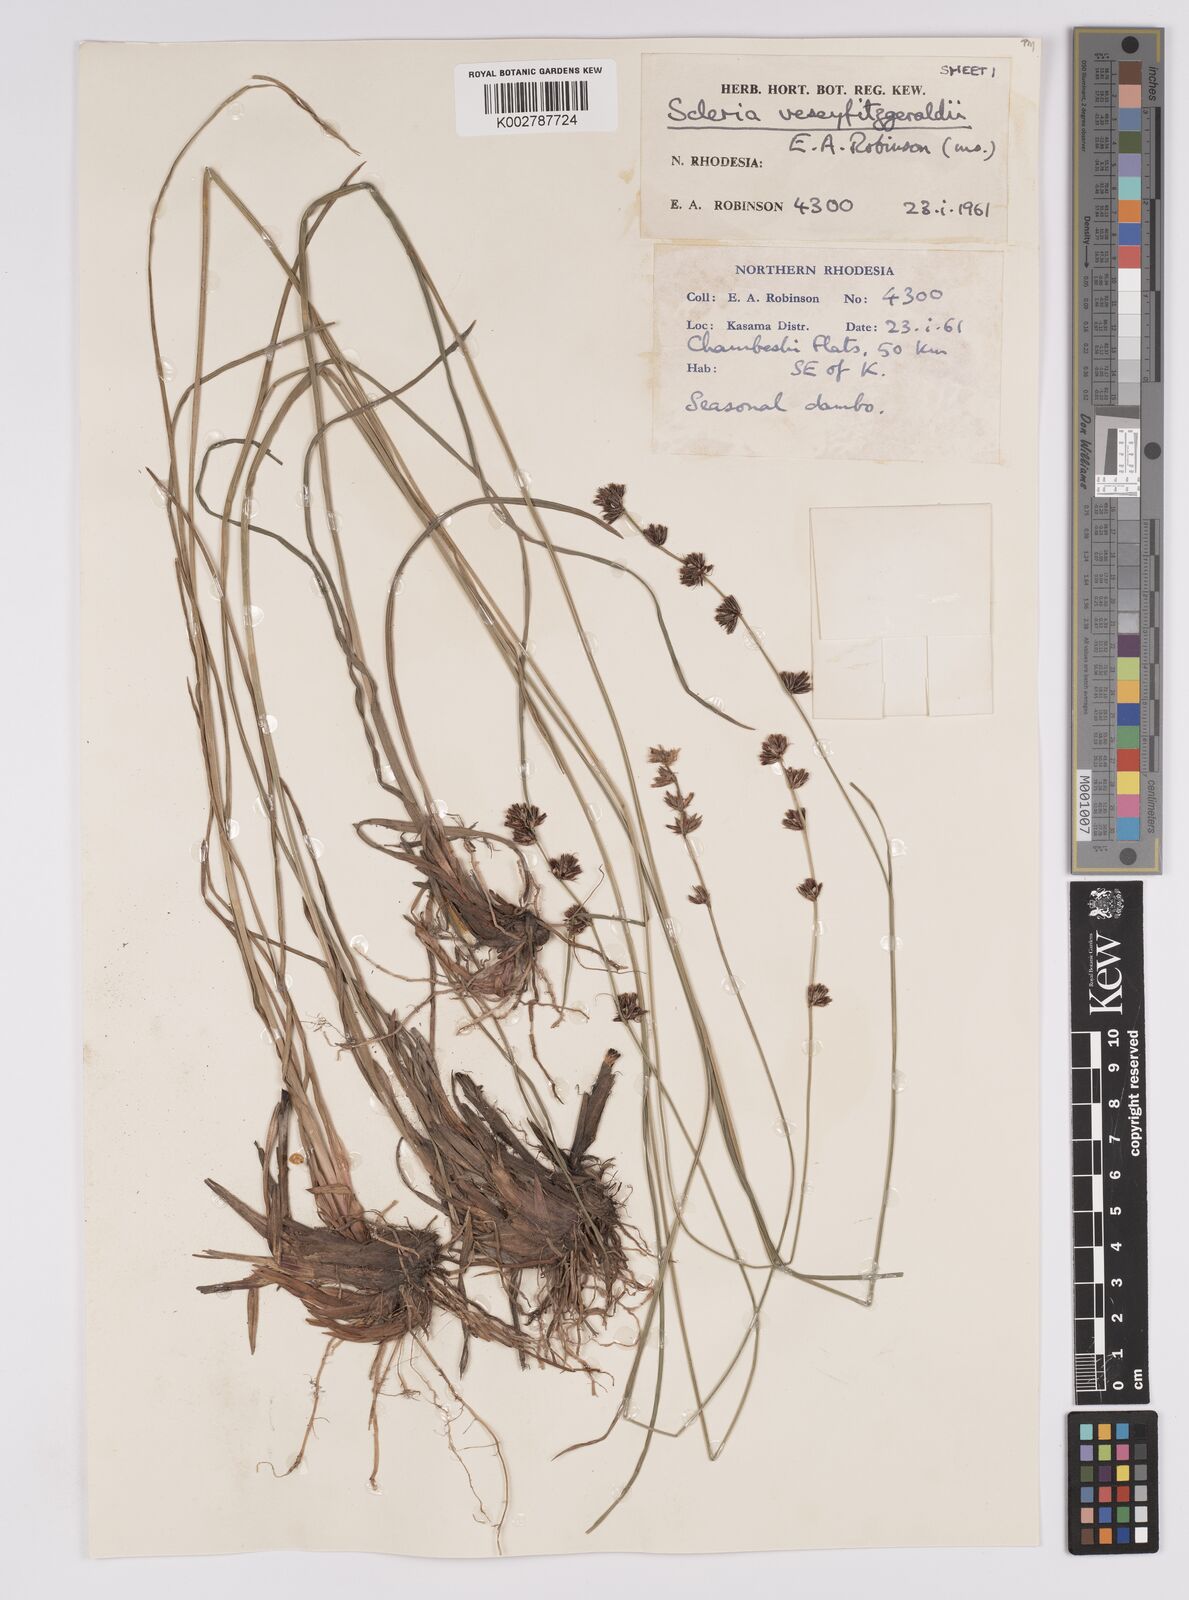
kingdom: Plantae
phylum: Tracheophyta
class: Liliopsida
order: Poales
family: Cyperaceae
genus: Scleria
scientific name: Scleria veseyfitzgeraldii
